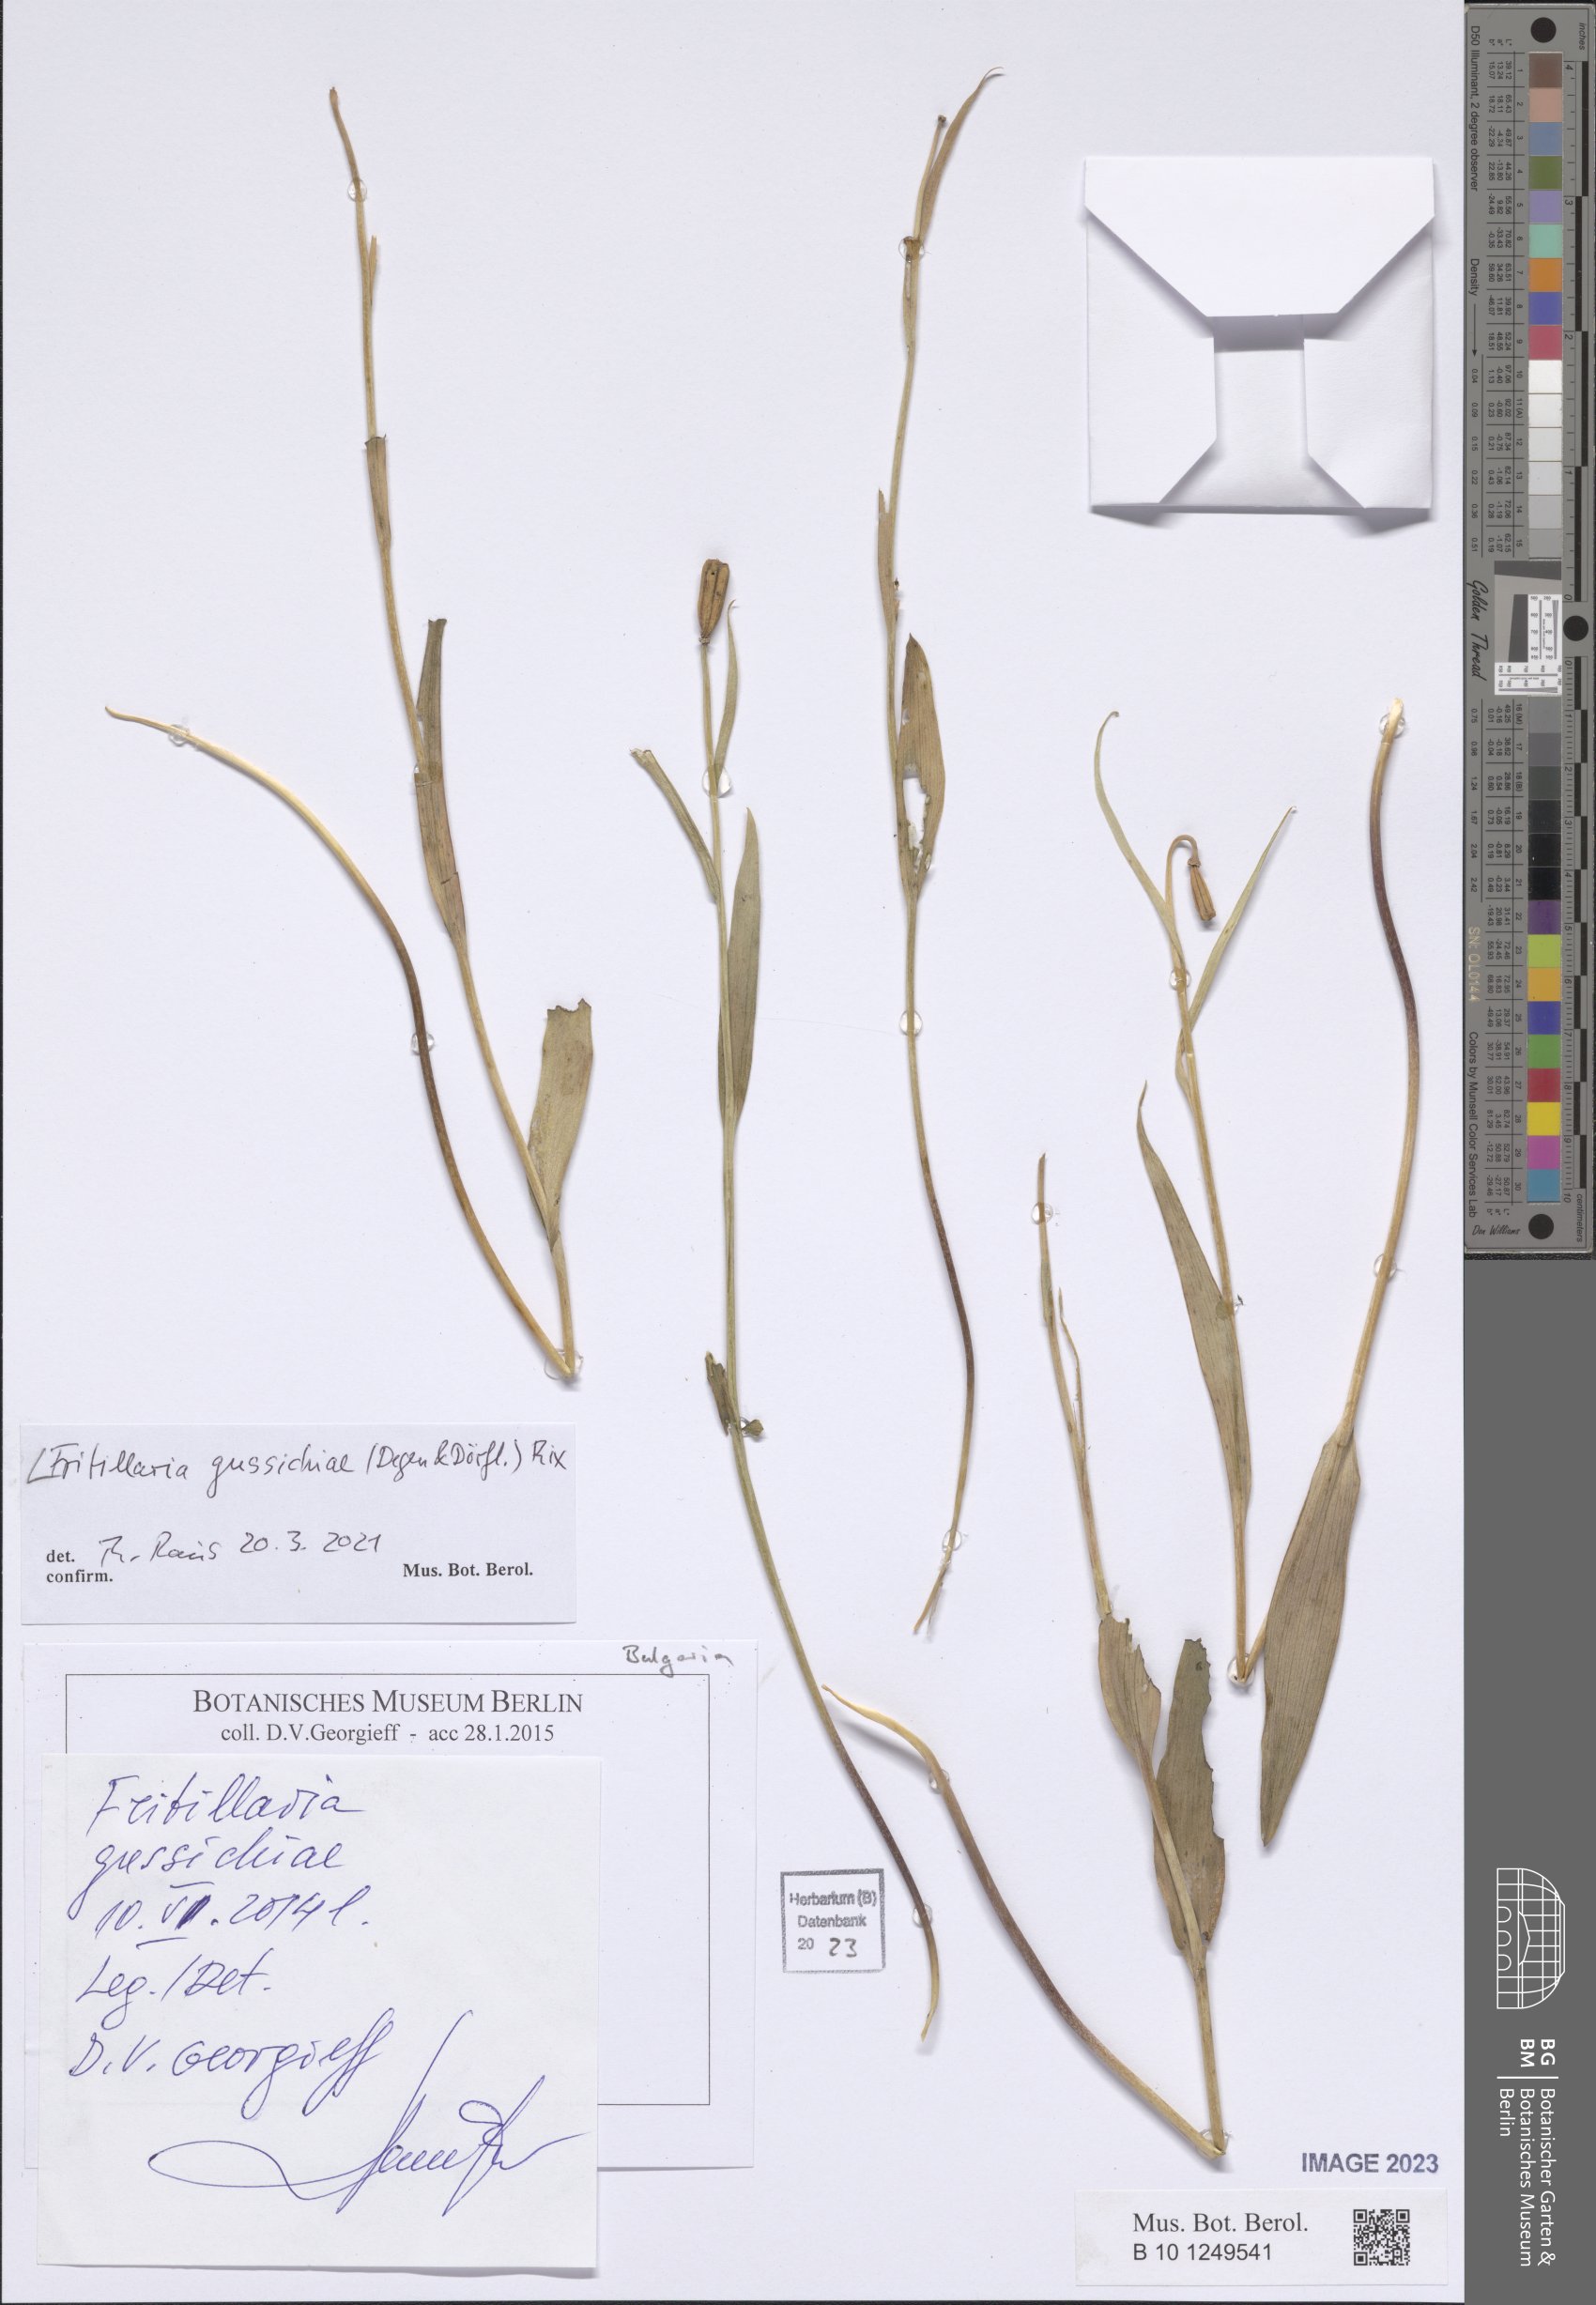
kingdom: Plantae
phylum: Tracheophyta
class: Liliopsida
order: Liliales
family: Liliaceae
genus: Fritillaria
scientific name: Fritillaria gussichiae
